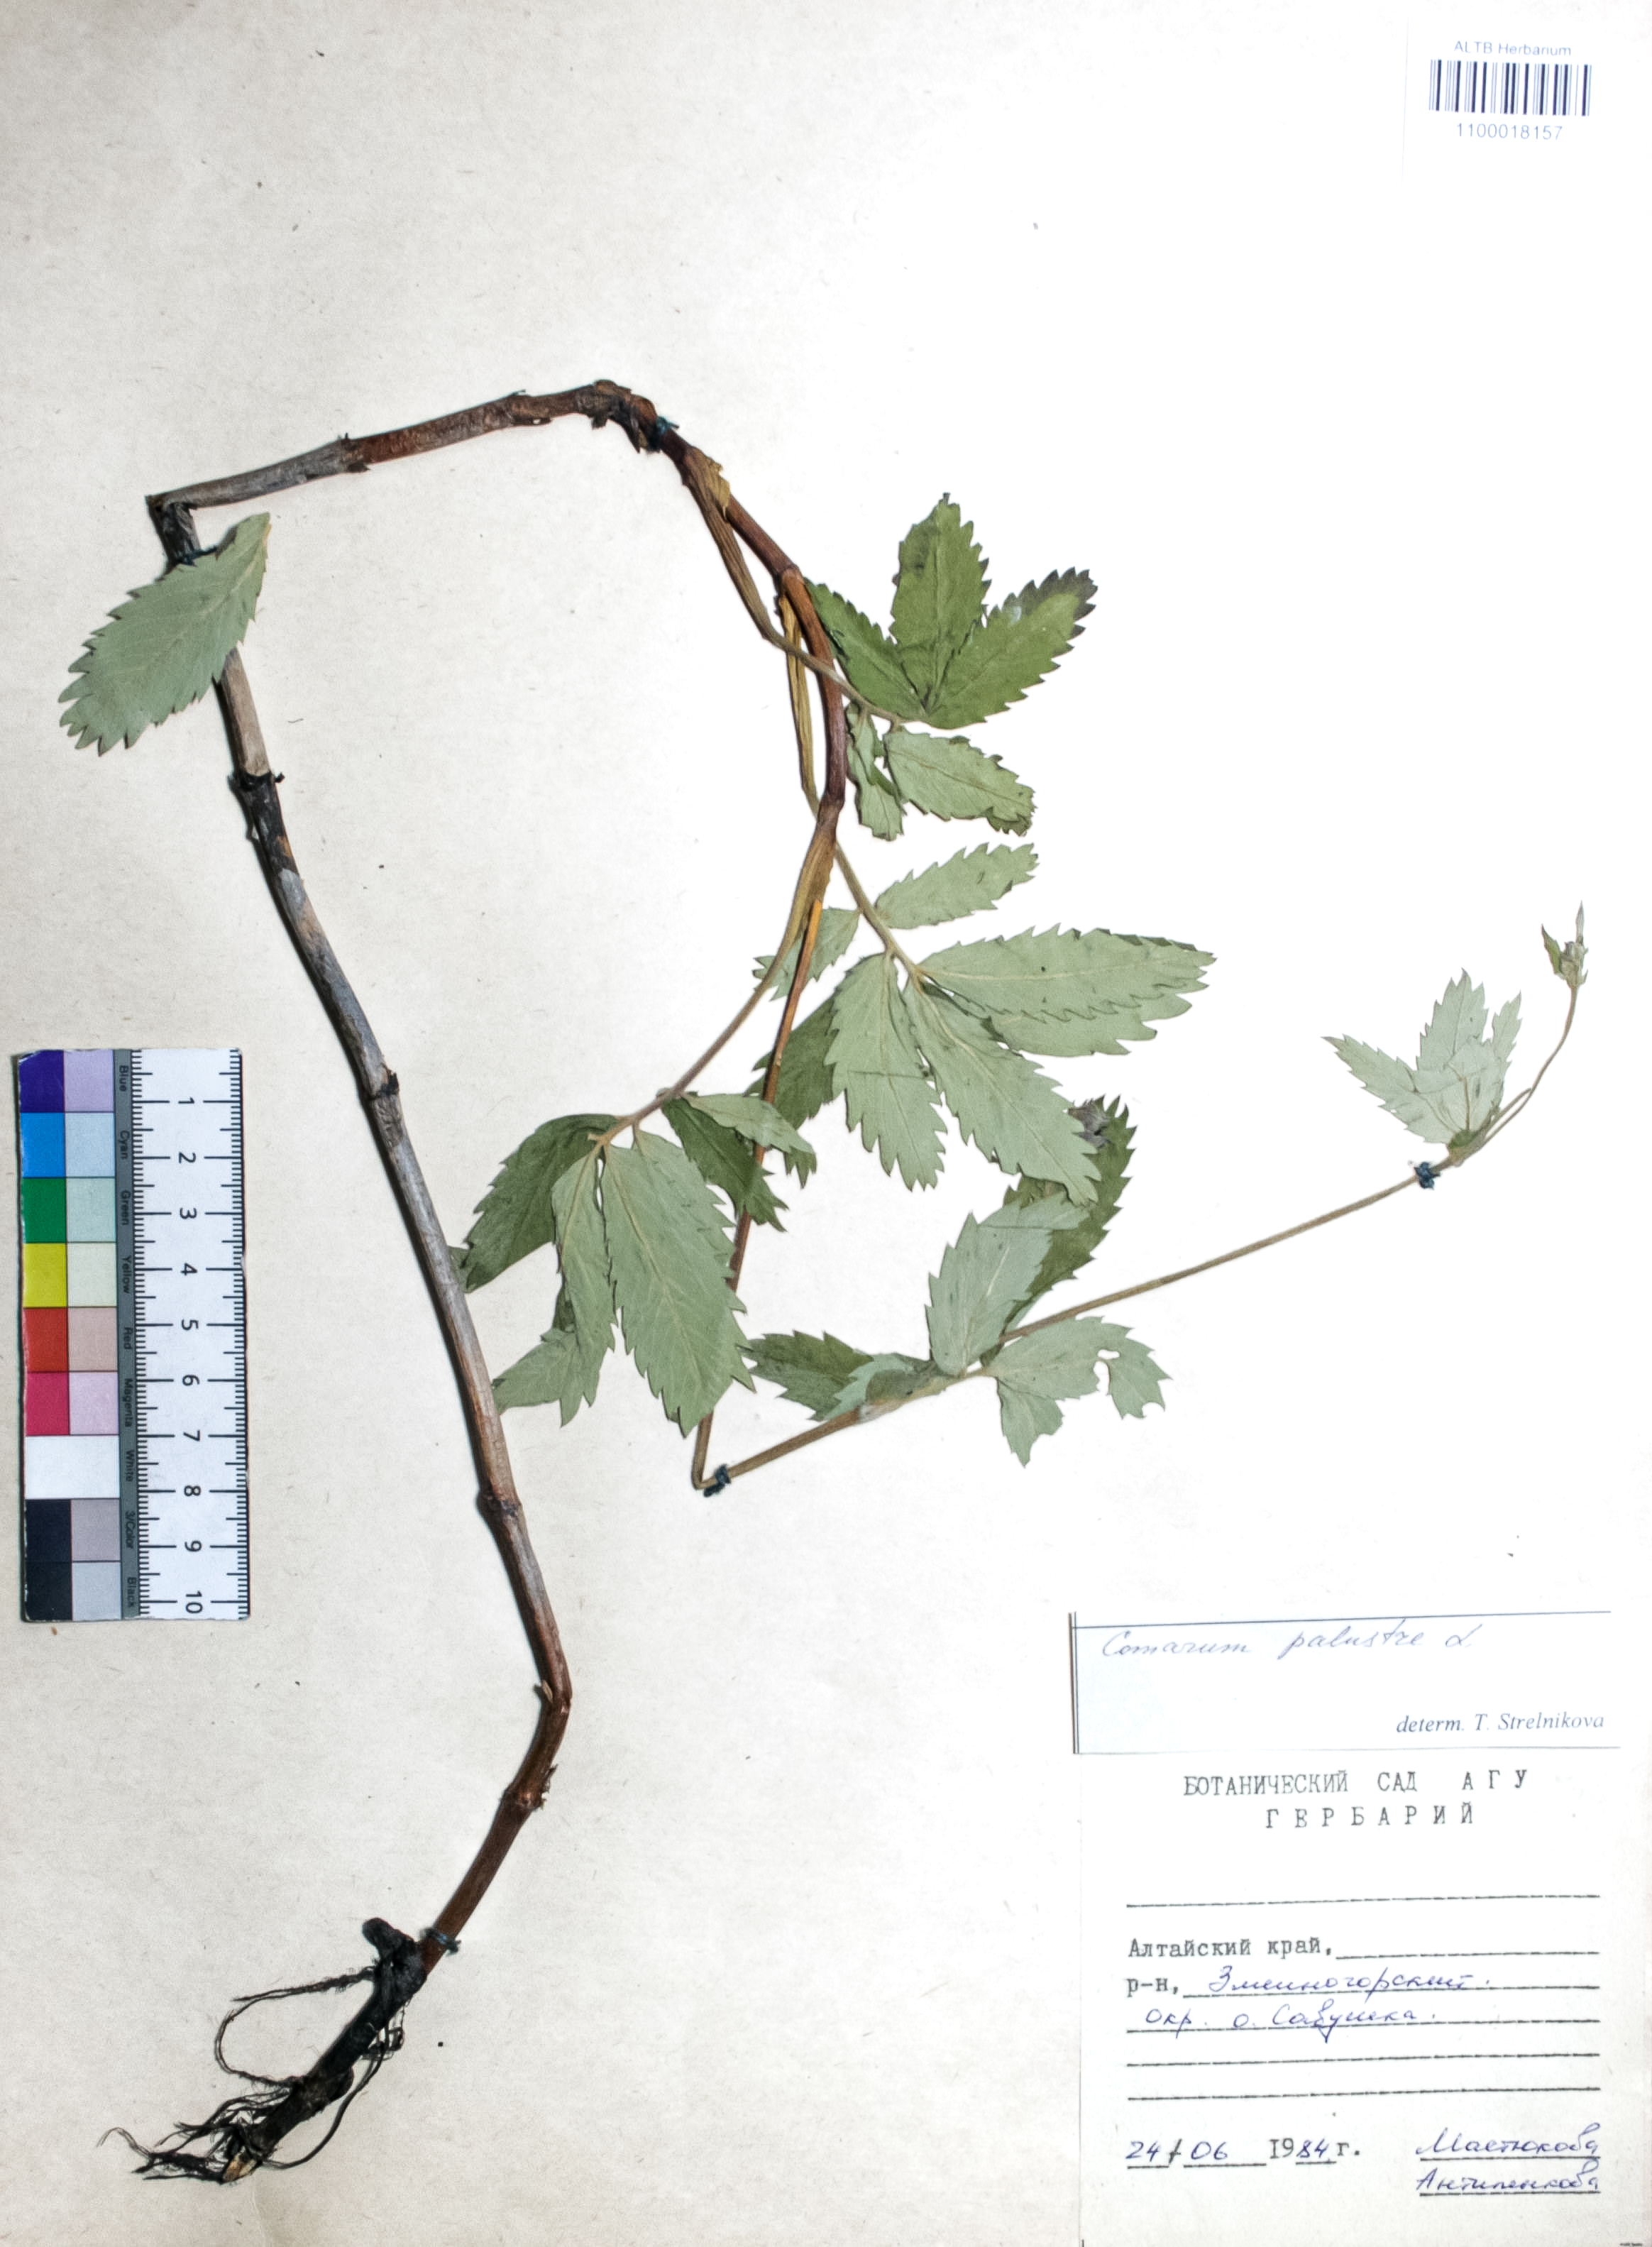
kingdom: Plantae
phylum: Tracheophyta
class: Magnoliopsida
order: Rosales
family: Rosaceae
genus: Comarum
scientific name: Comarum palustre
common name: Marsh cinquefoil
